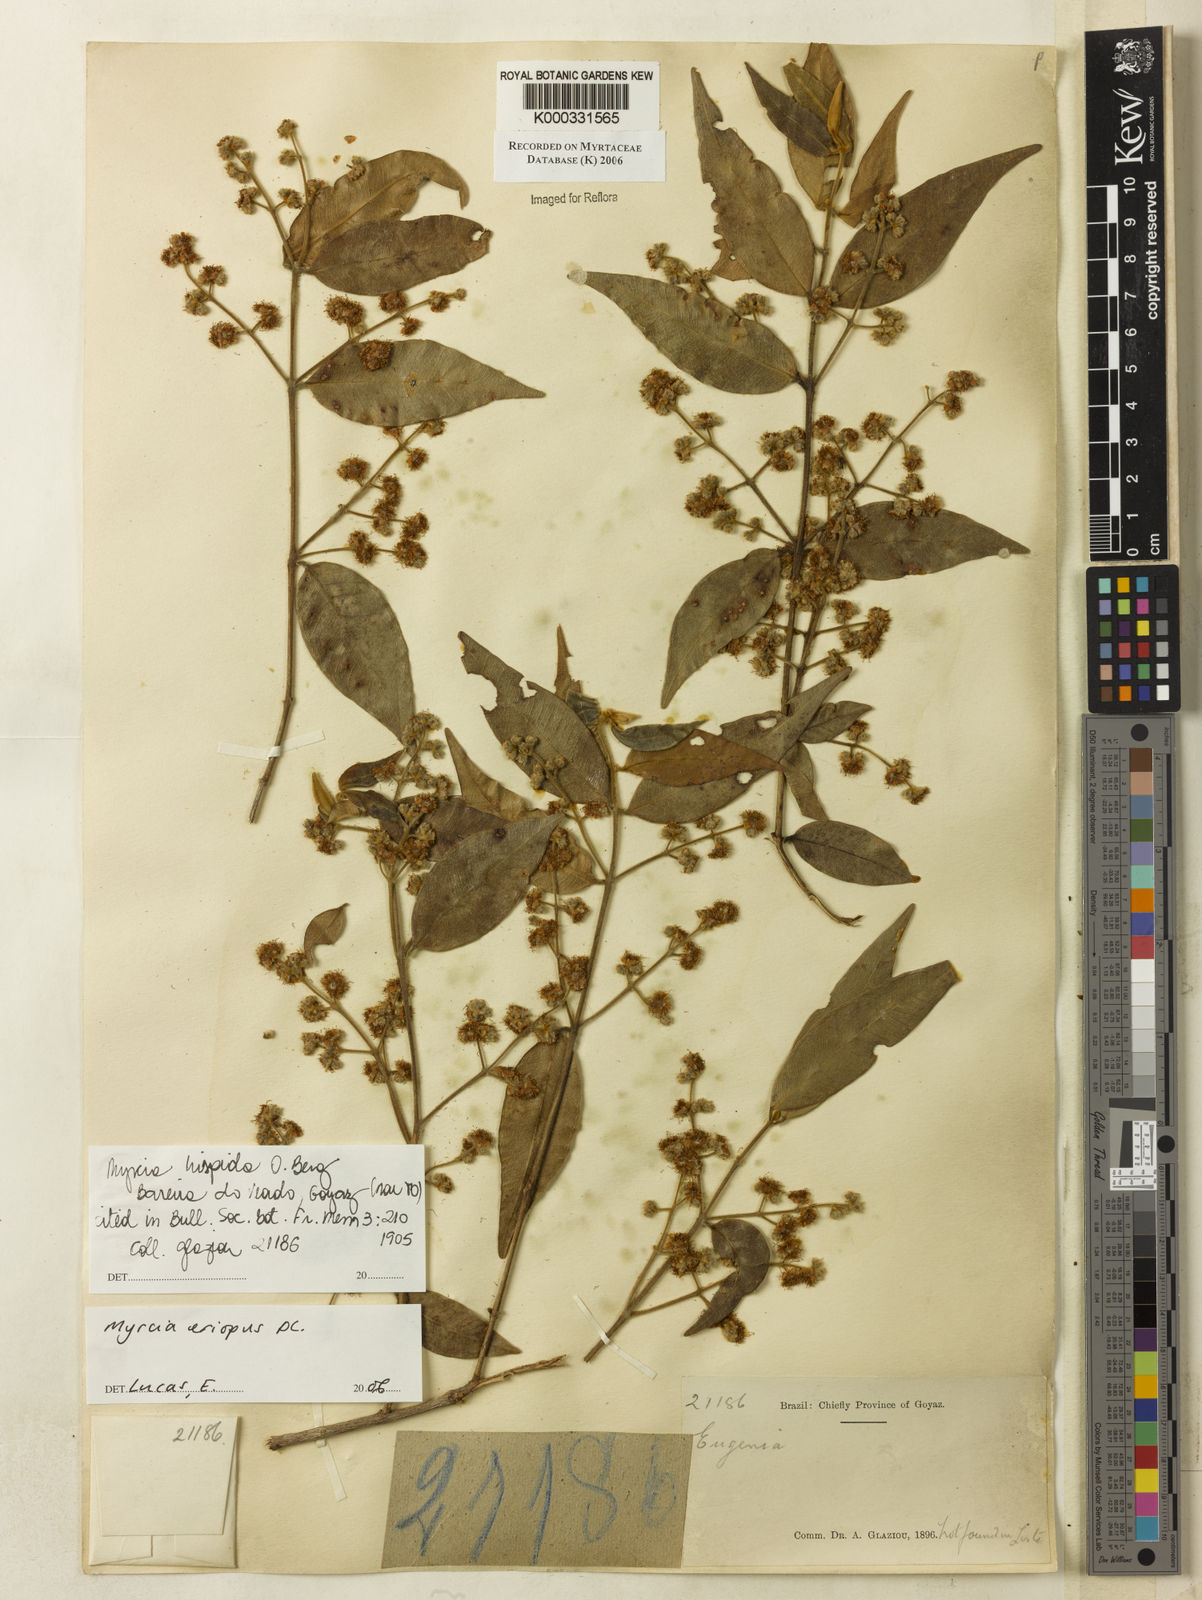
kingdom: Plantae
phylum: Tracheophyta
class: Magnoliopsida
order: Myrtales
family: Myrtaceae
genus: Myrcia
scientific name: Myrcia eriopus
